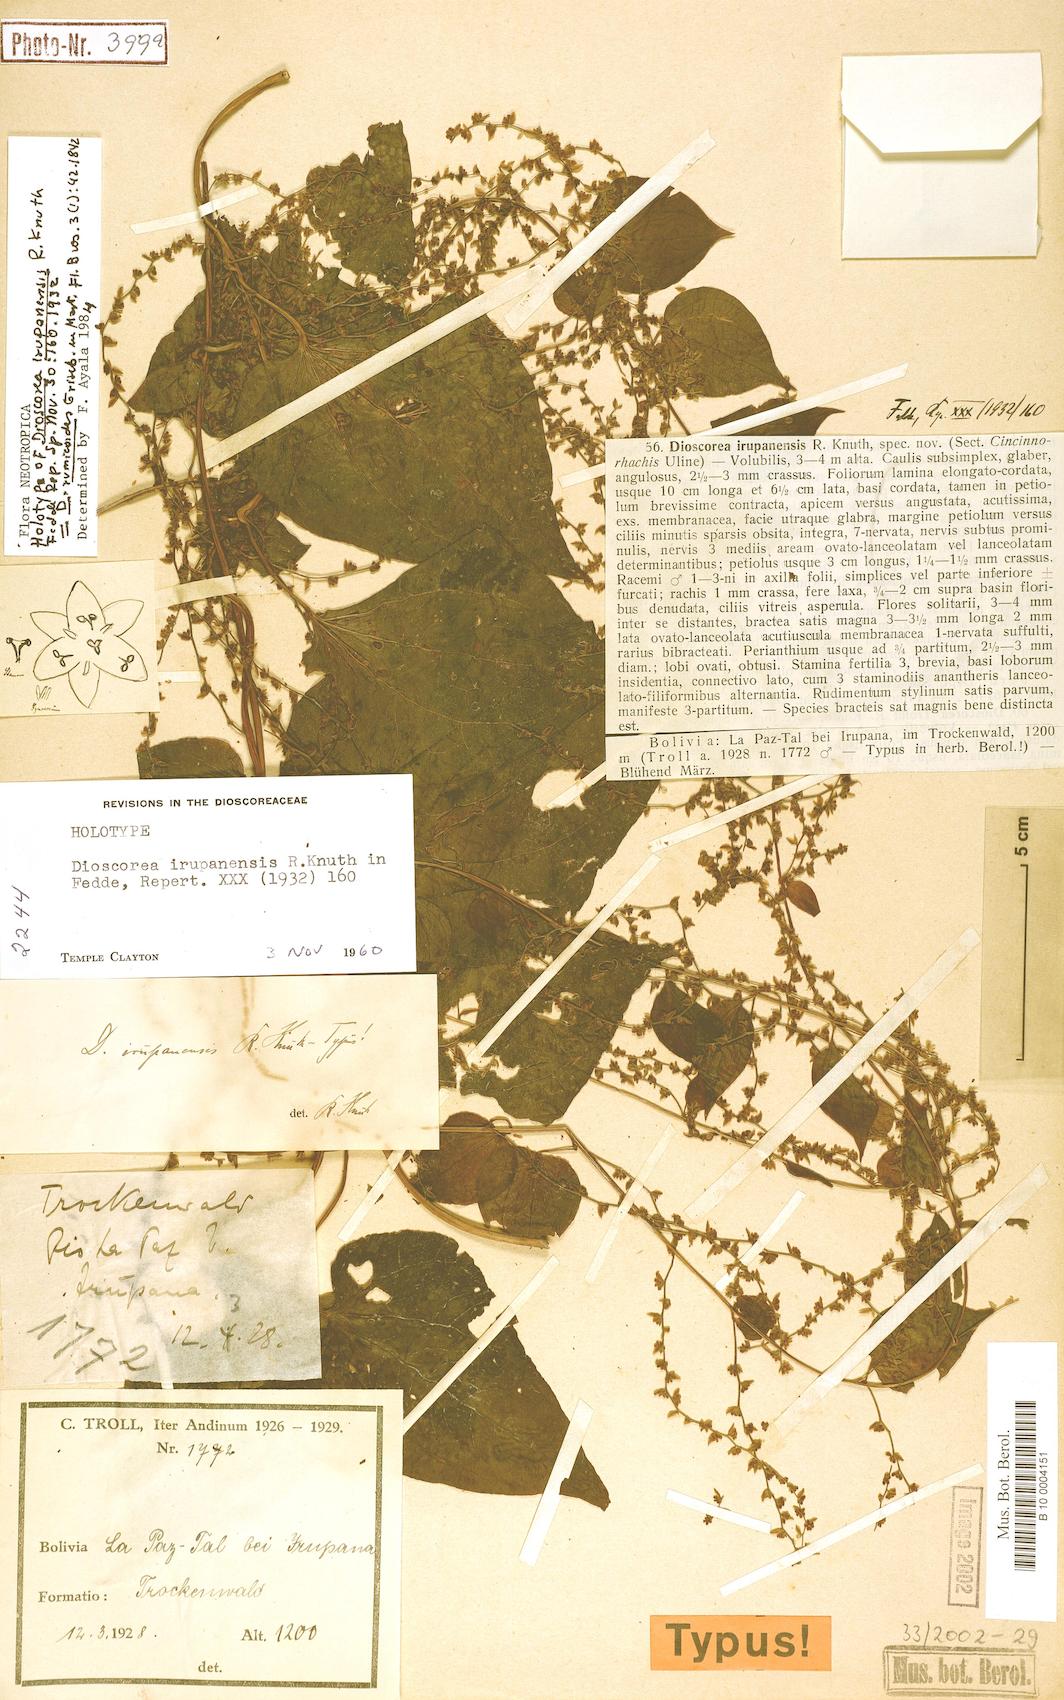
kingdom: Plantae
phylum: Tracheophyta
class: Liliopsida
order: Dioscoreales
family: Dioscoreaceae
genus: Dioscorea
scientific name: Dioscorea rumicoides
